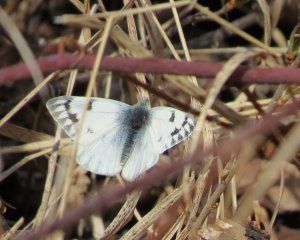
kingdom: Animalia
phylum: Arthropoda
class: Insecta
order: Lepidoptera
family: Pieridae
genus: Pontia
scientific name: Pontia occidentalis
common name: Western White
